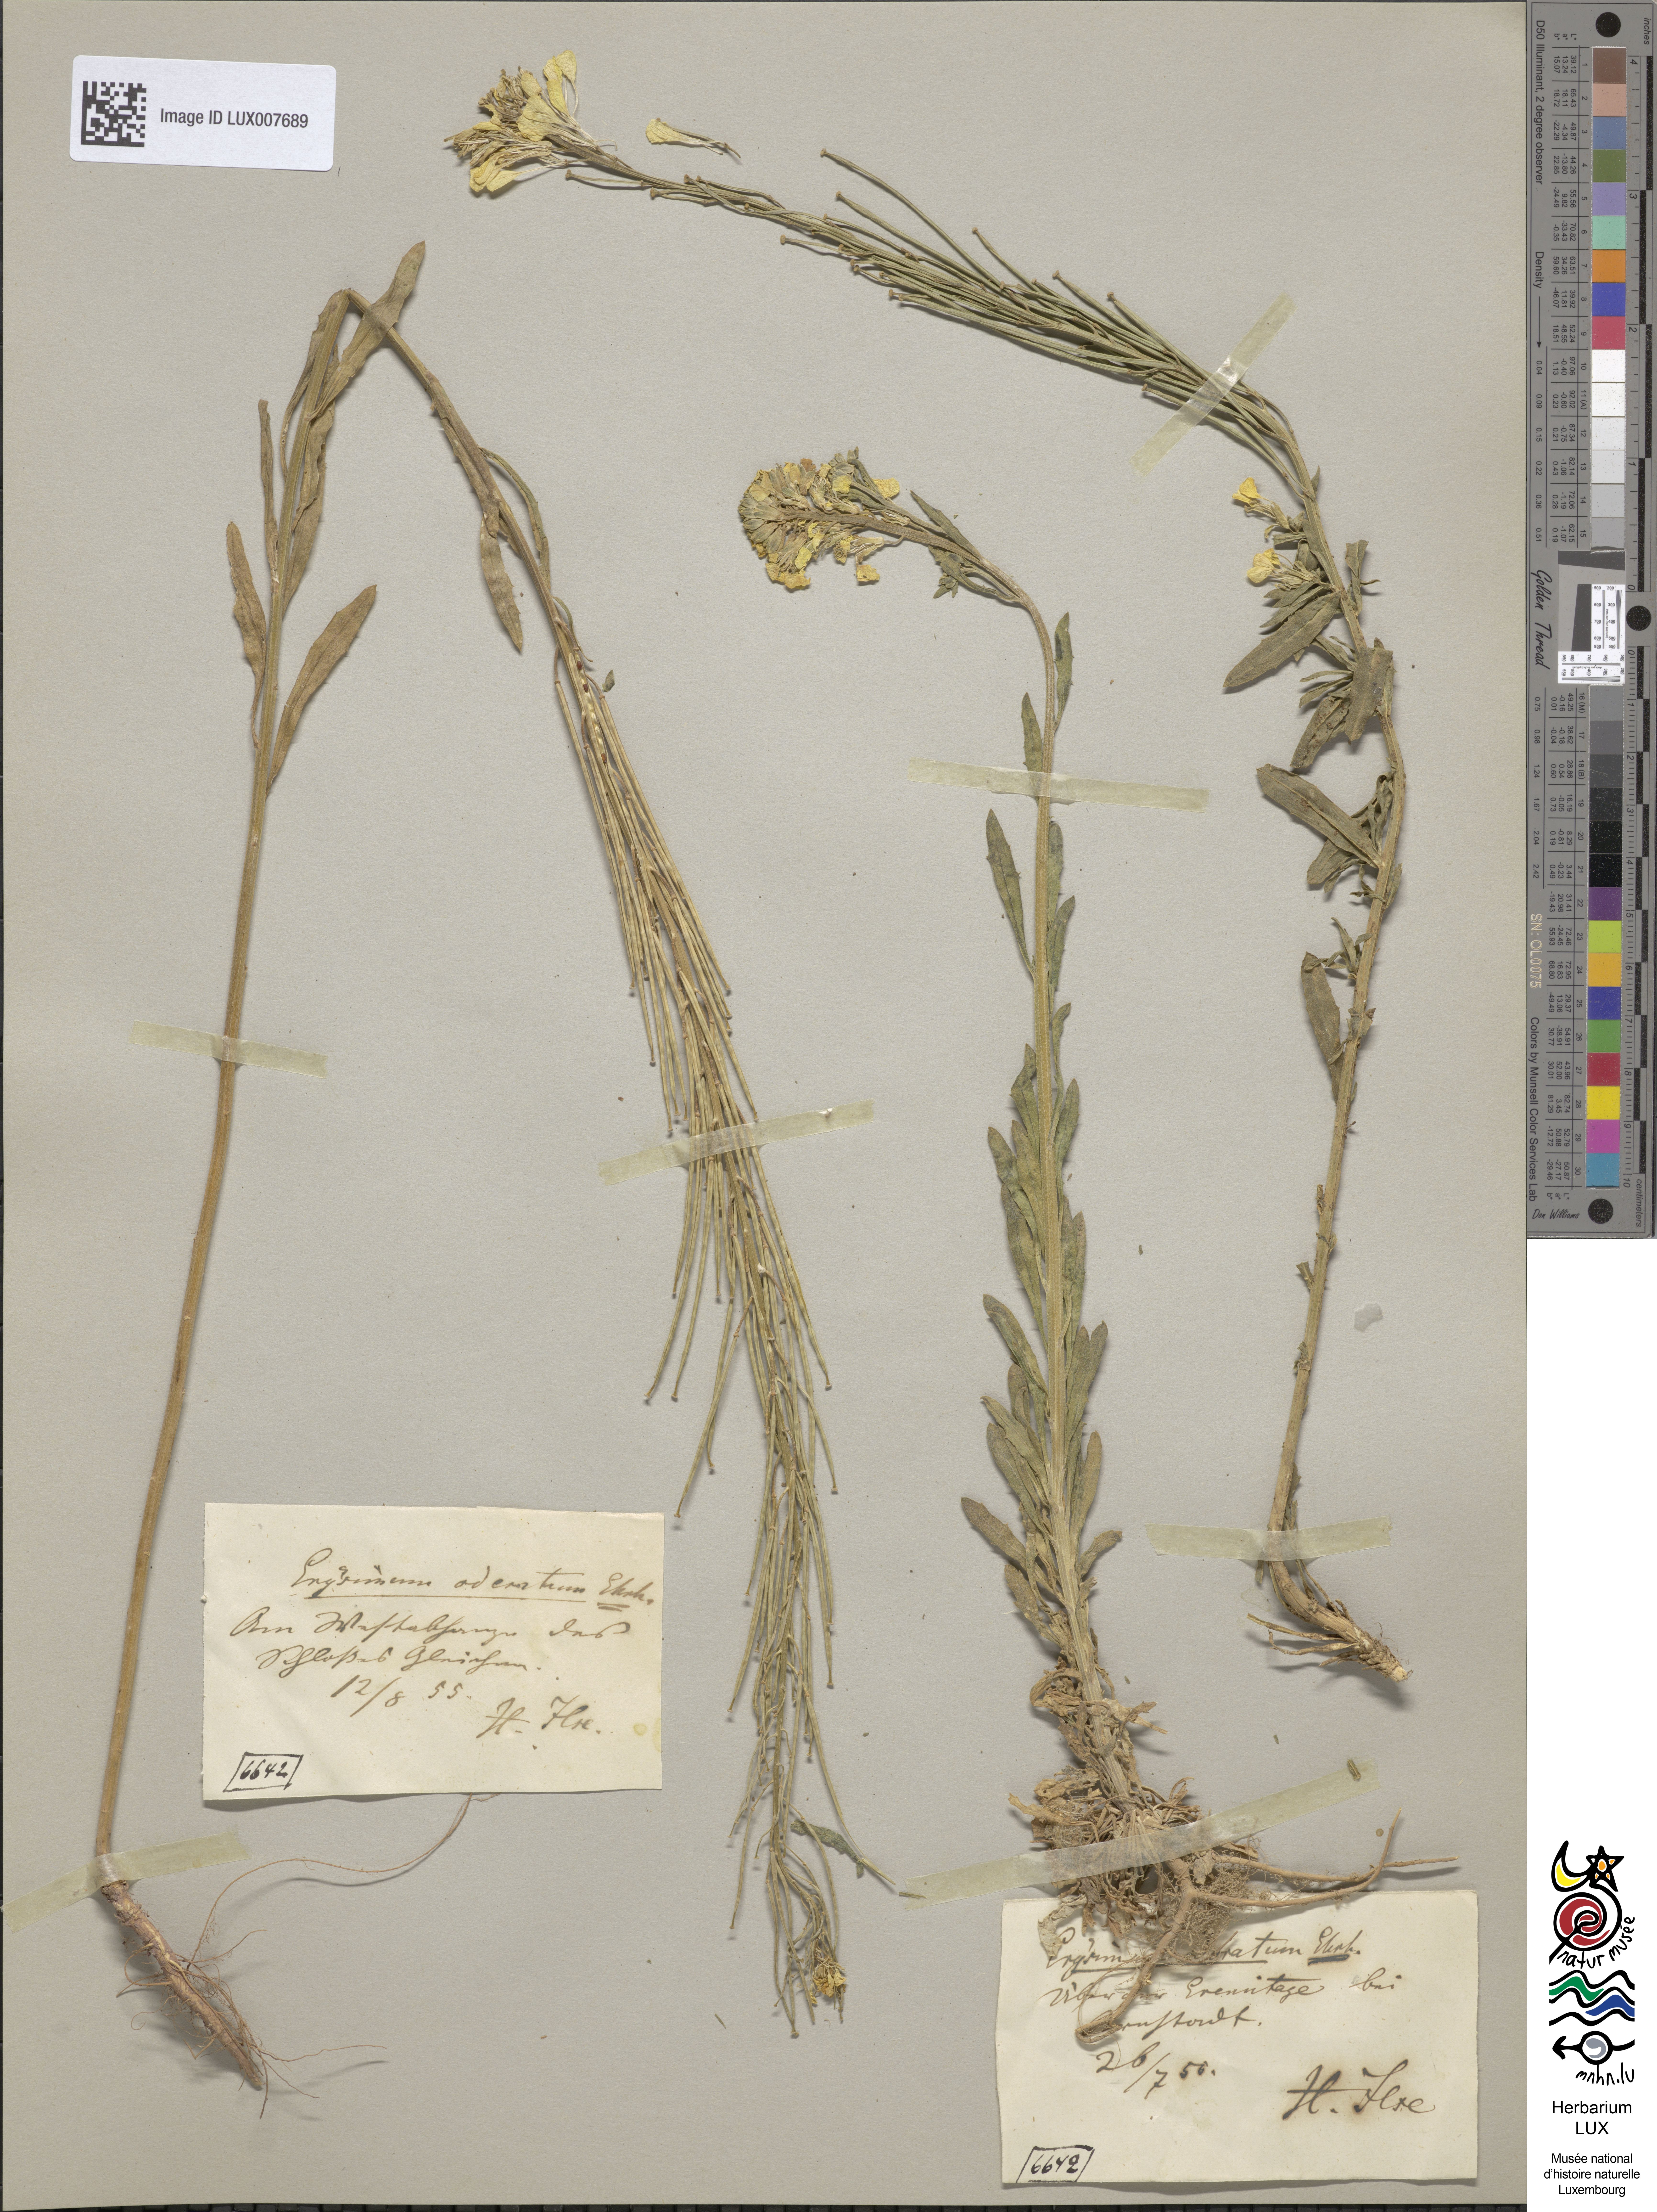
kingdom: Plantae
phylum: Tracheophyta
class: Magnoliopsida
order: Brassicales
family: Brassicaceae
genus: Erysimum
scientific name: Erysimum odoratum
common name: Smelly wallflower
